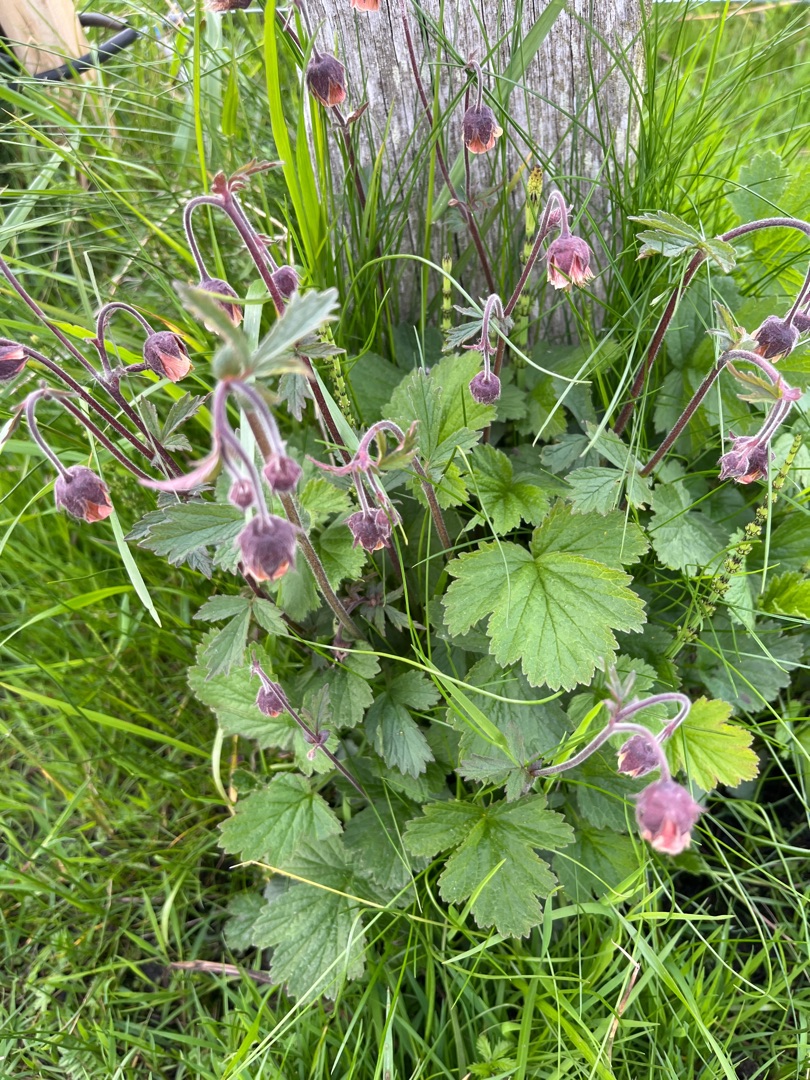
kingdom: Plantae
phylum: Tracheophyta
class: Magnoliopsida
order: Rosales
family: Rosaceae
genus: Geum
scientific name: Geum rivale
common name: Eng-nellikerod
